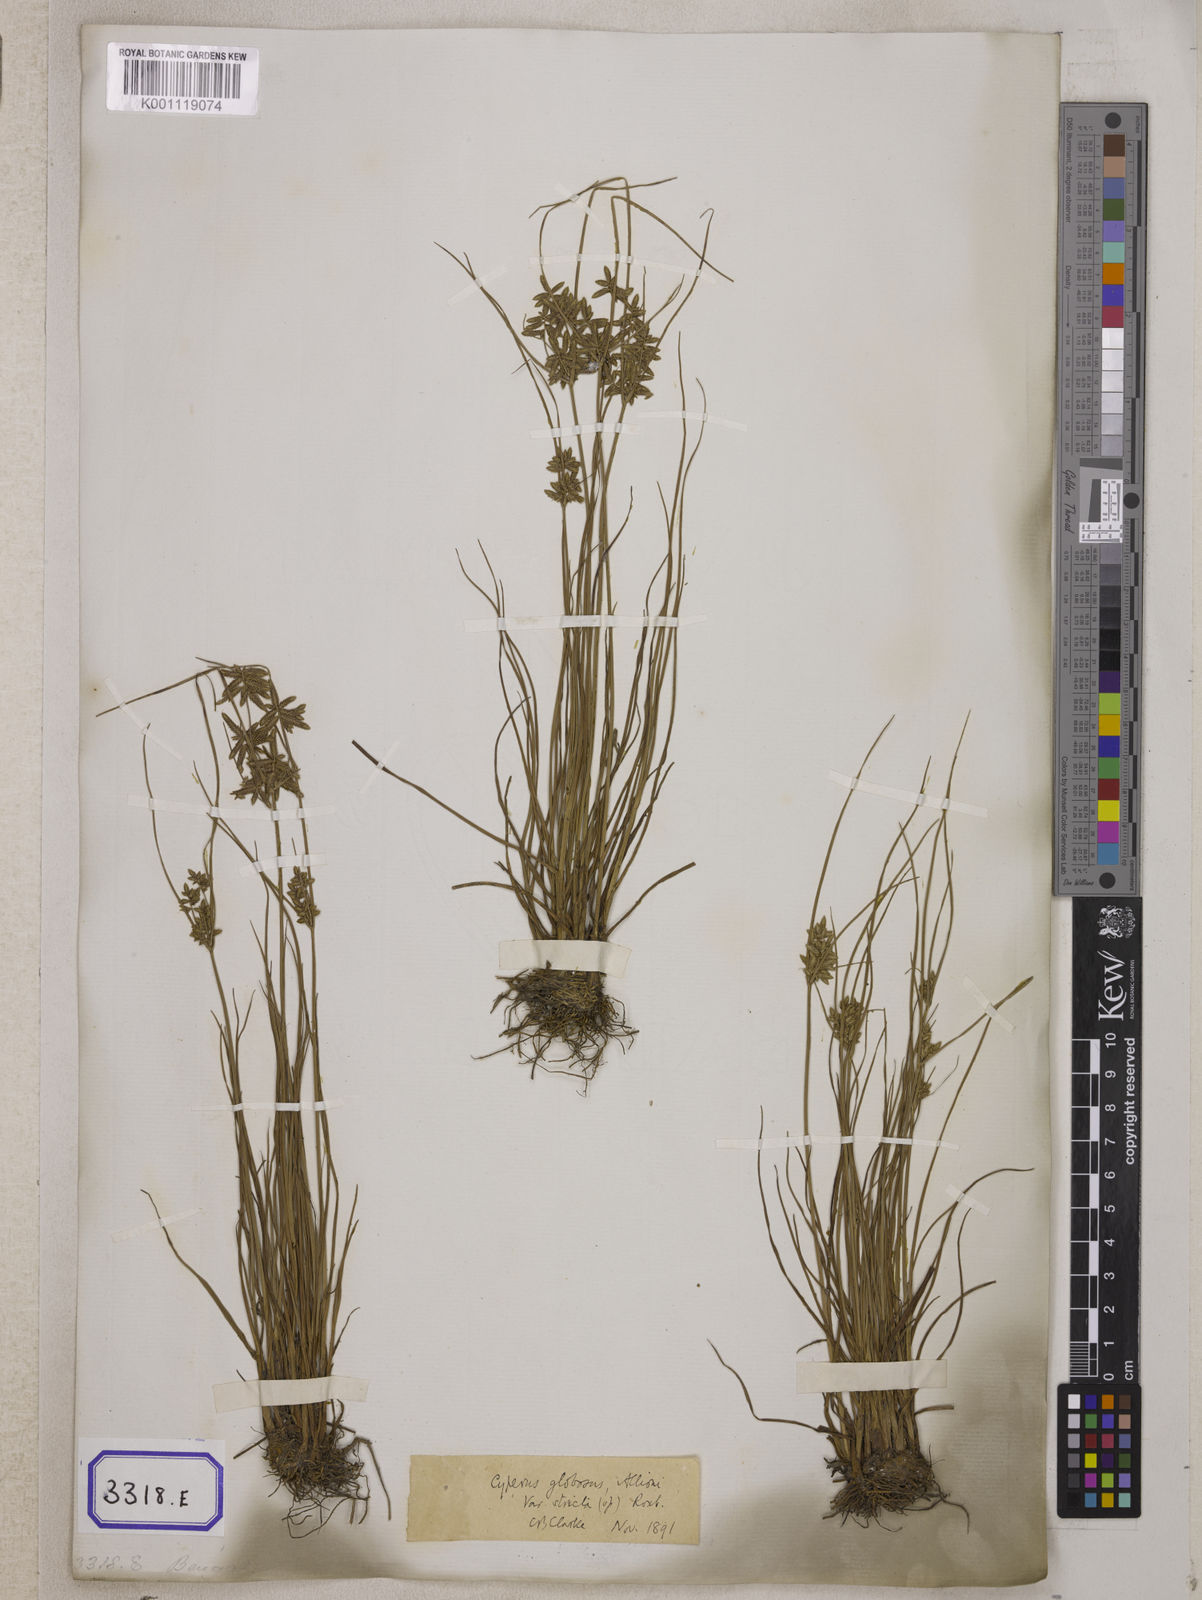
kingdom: Plantae
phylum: Tracheophyta
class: Liliopsida
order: Poales
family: Cyperaceae
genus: Cyperus
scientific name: Cyperus
